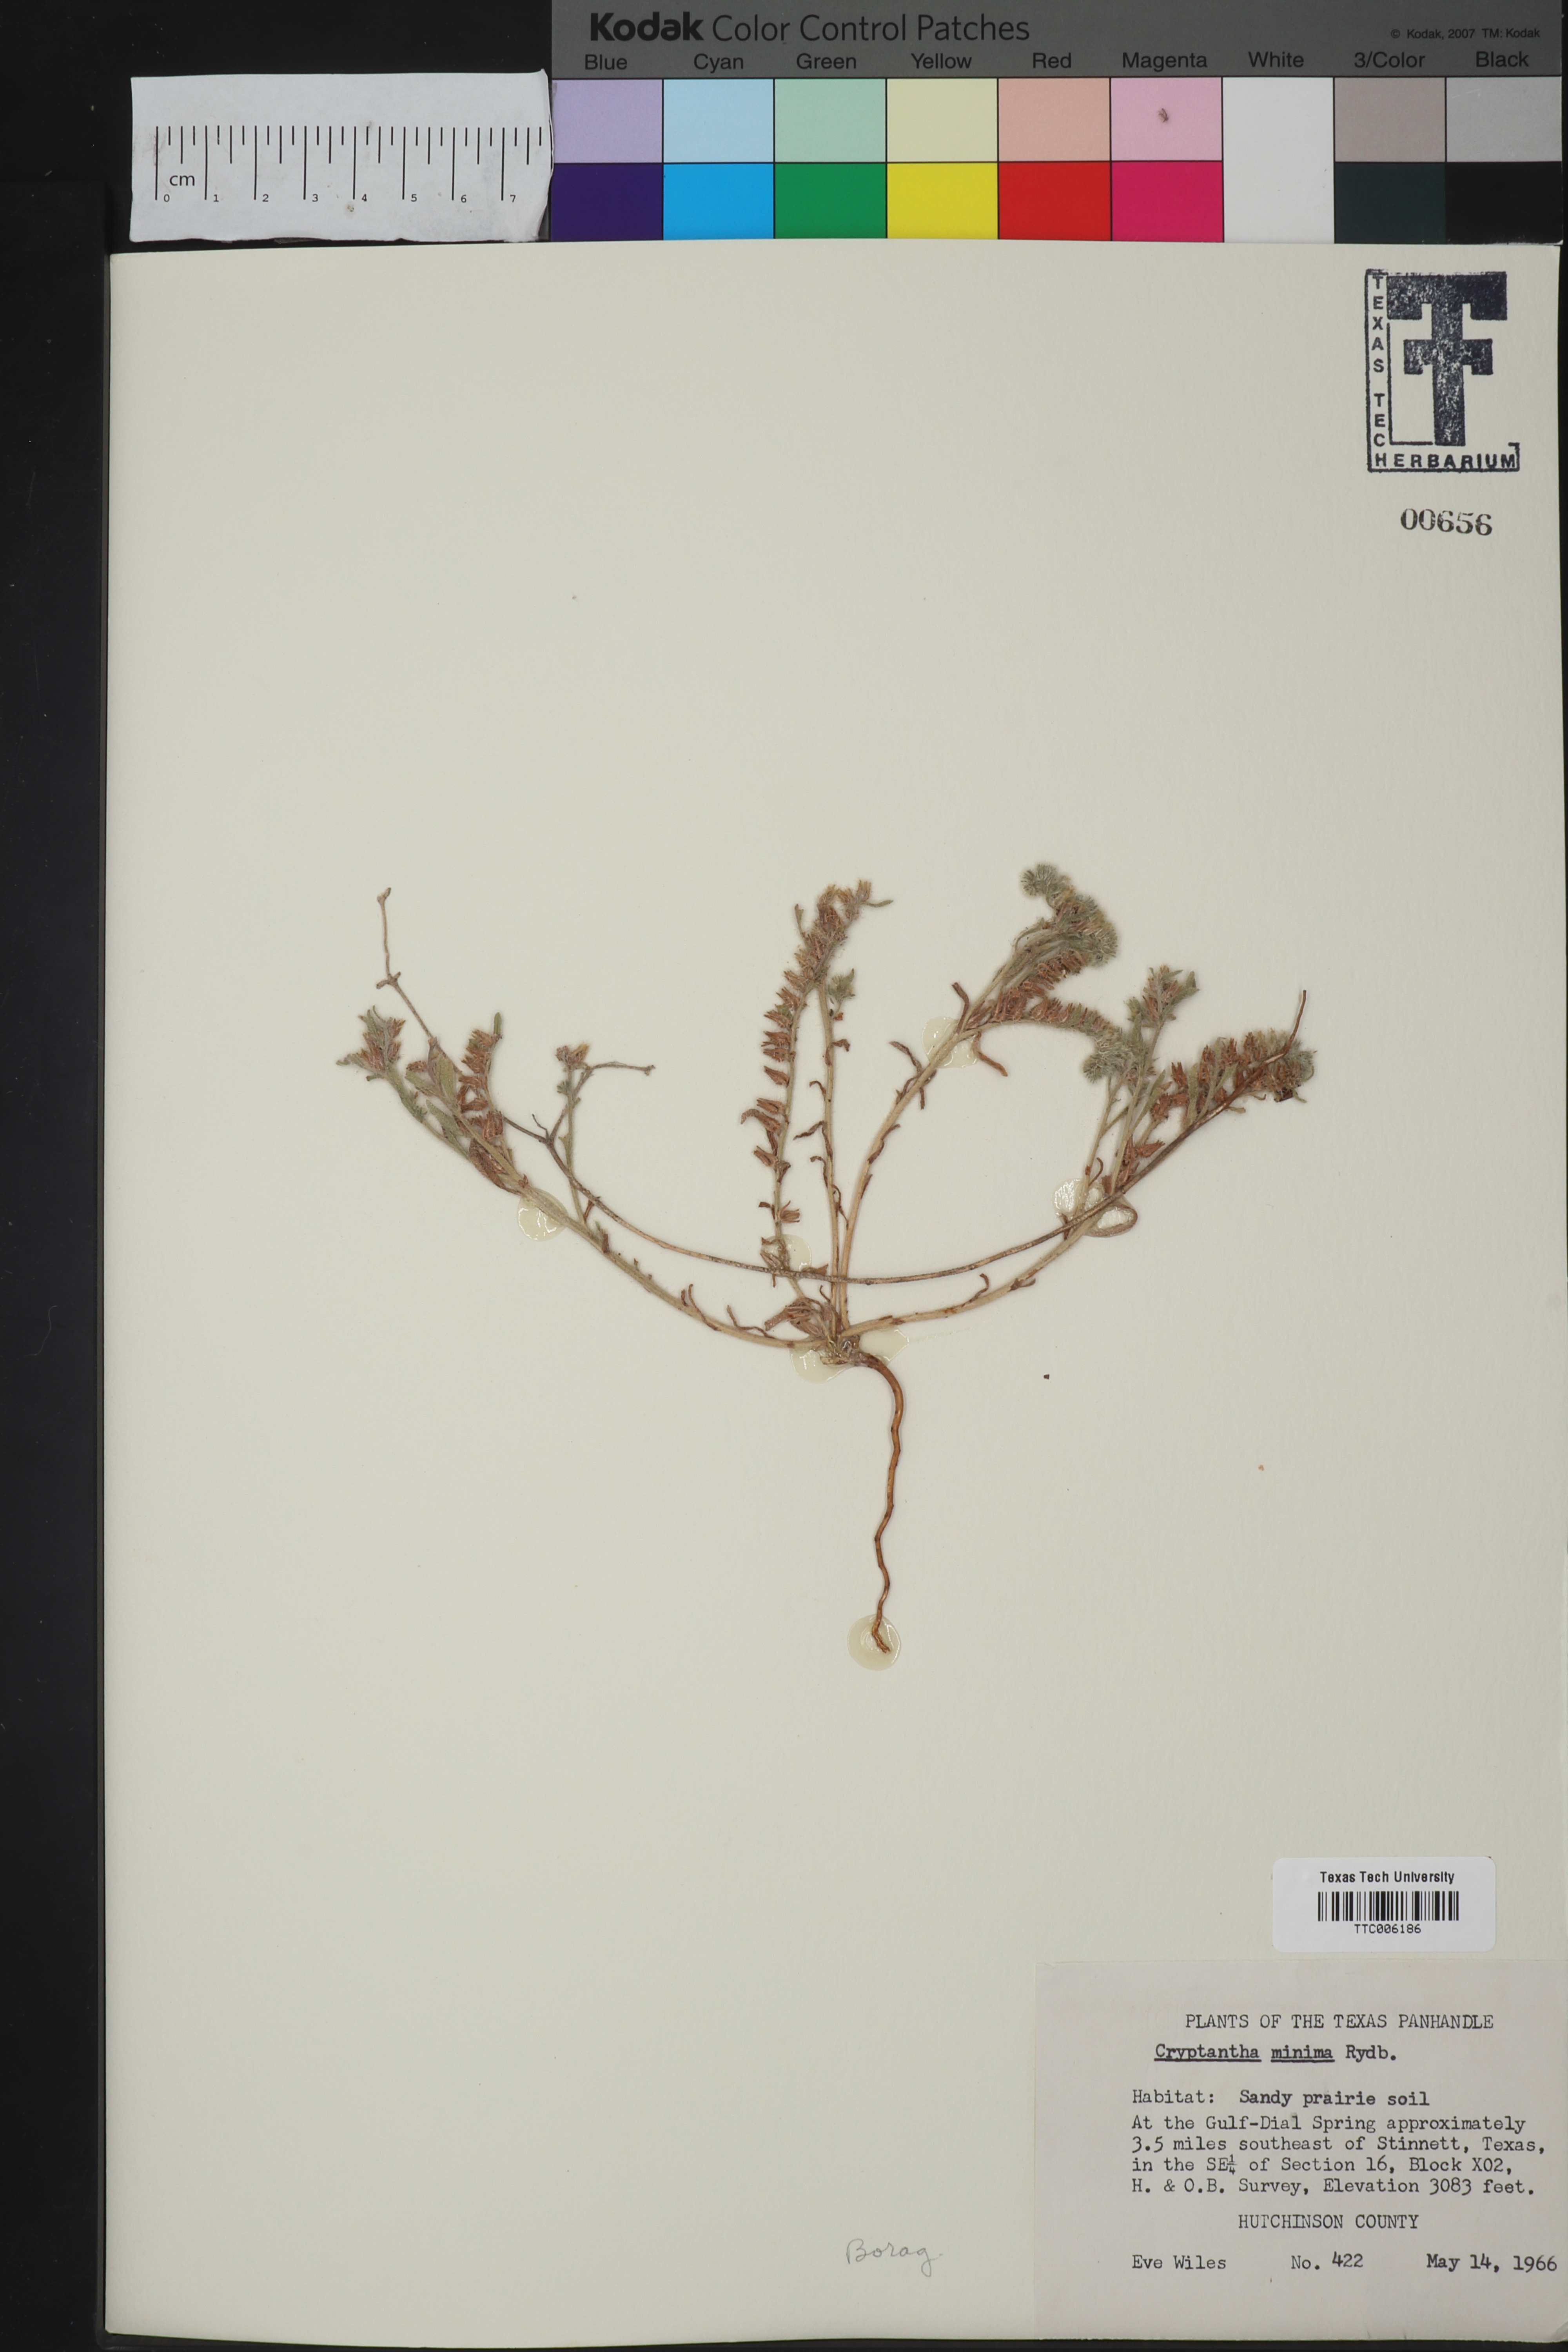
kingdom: Plantae
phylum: Tracheophyta
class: Magnoliopsida
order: Boraginales
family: Boraginaceae
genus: Cryptantha
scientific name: Cryptantha minima
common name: Little cat's-eye
